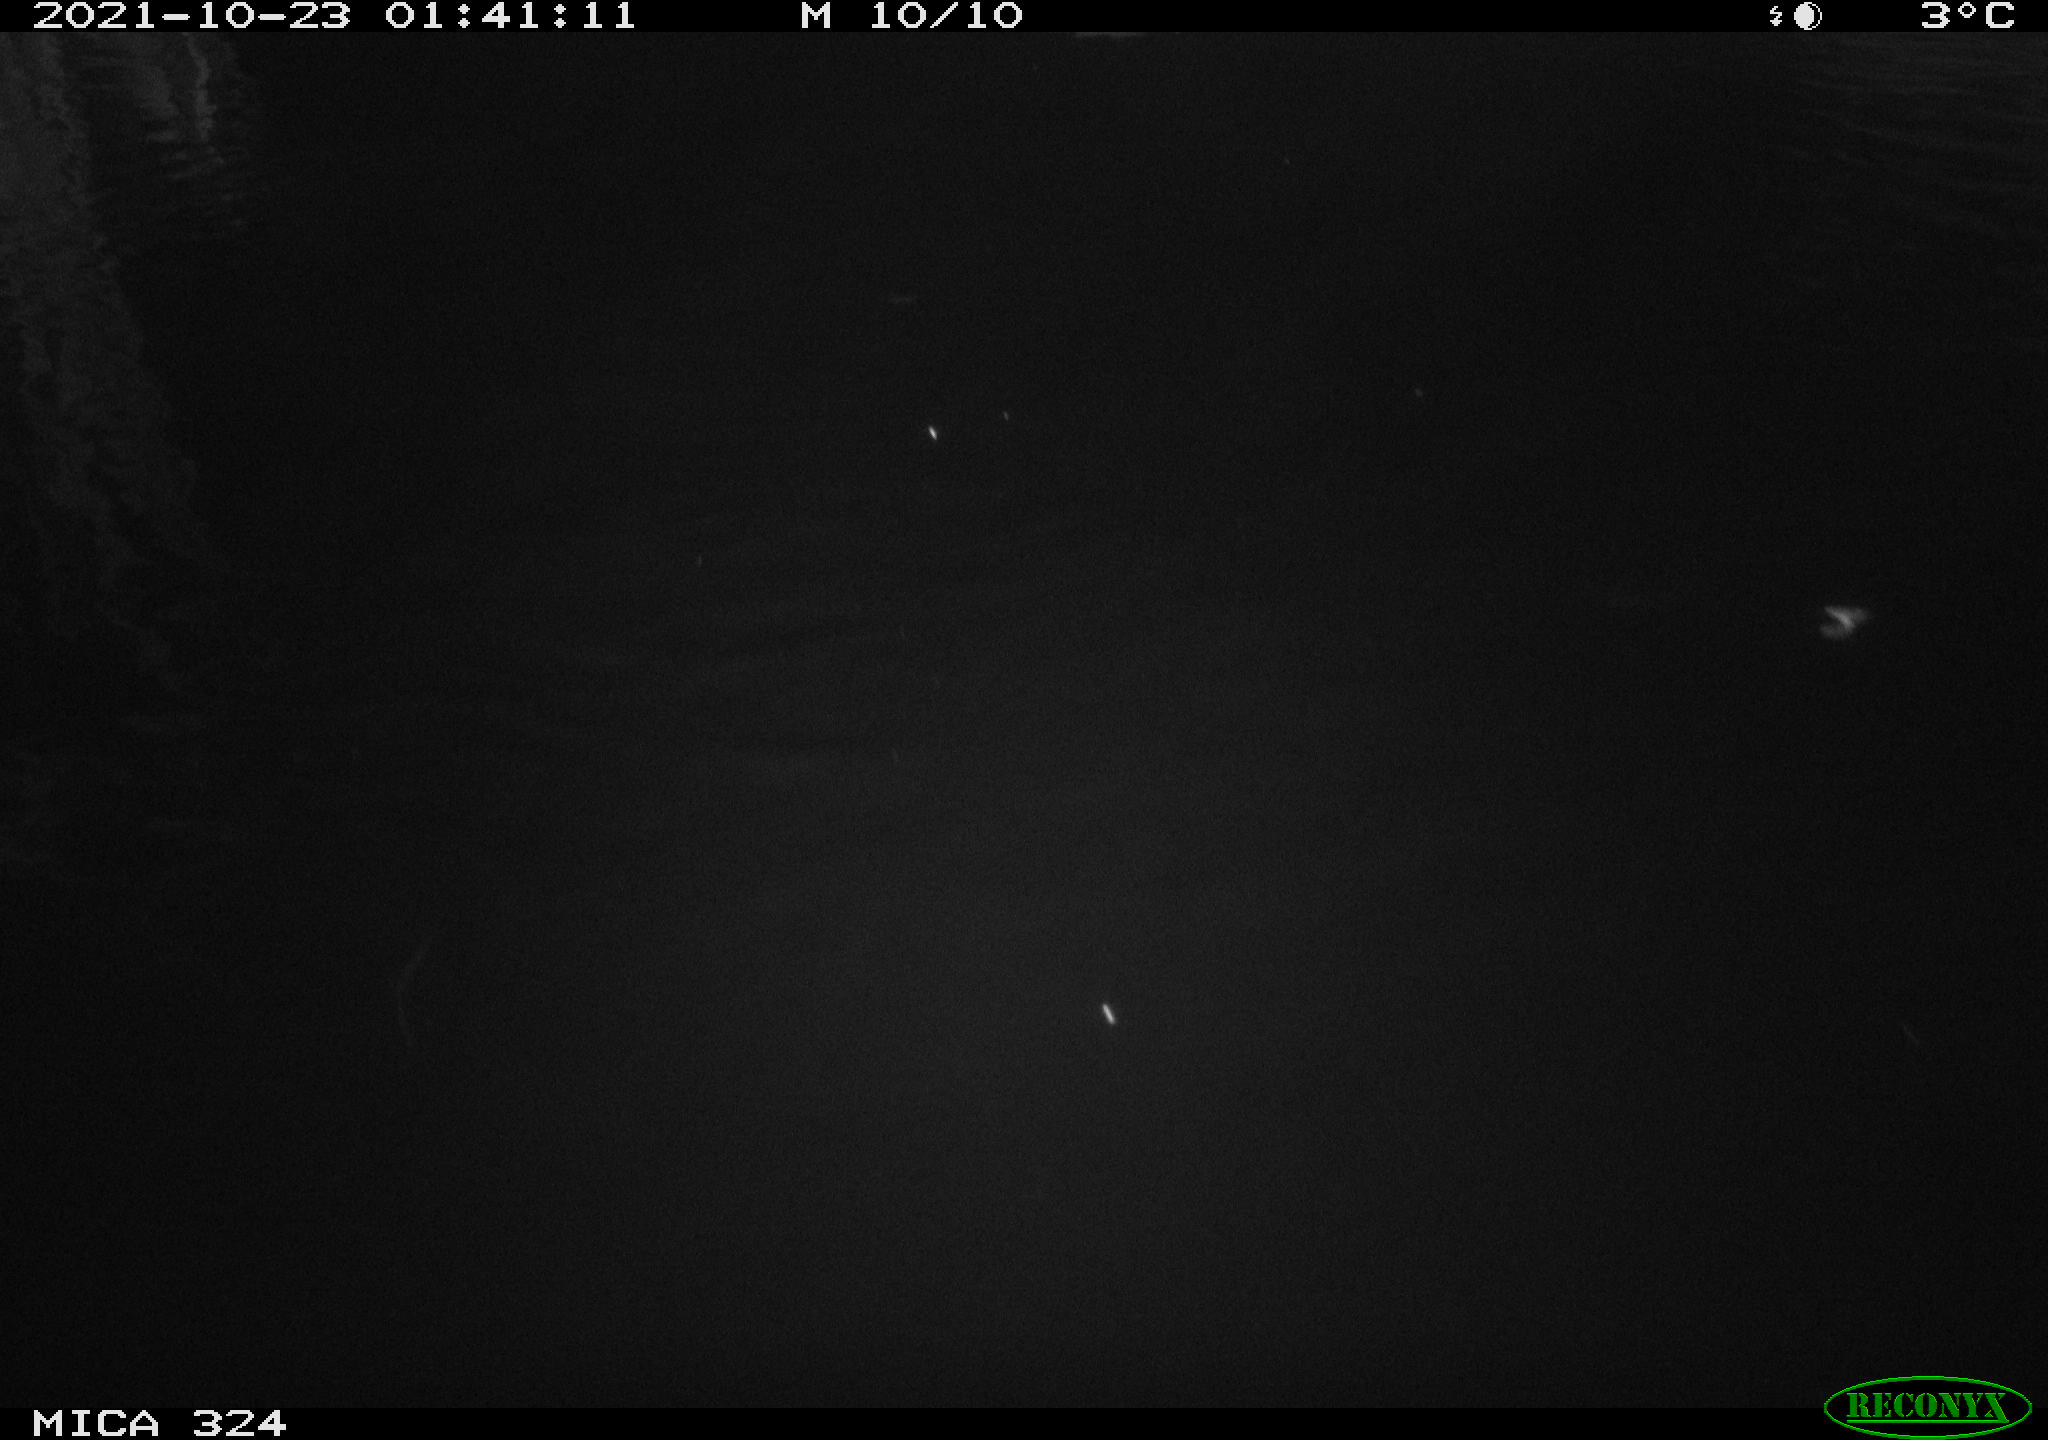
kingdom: Animalia
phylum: Chordata
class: Mammalia
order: Rodentia
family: Cricetidae
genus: Ondatra
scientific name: Ondatra zibethicus
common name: Muskrat
